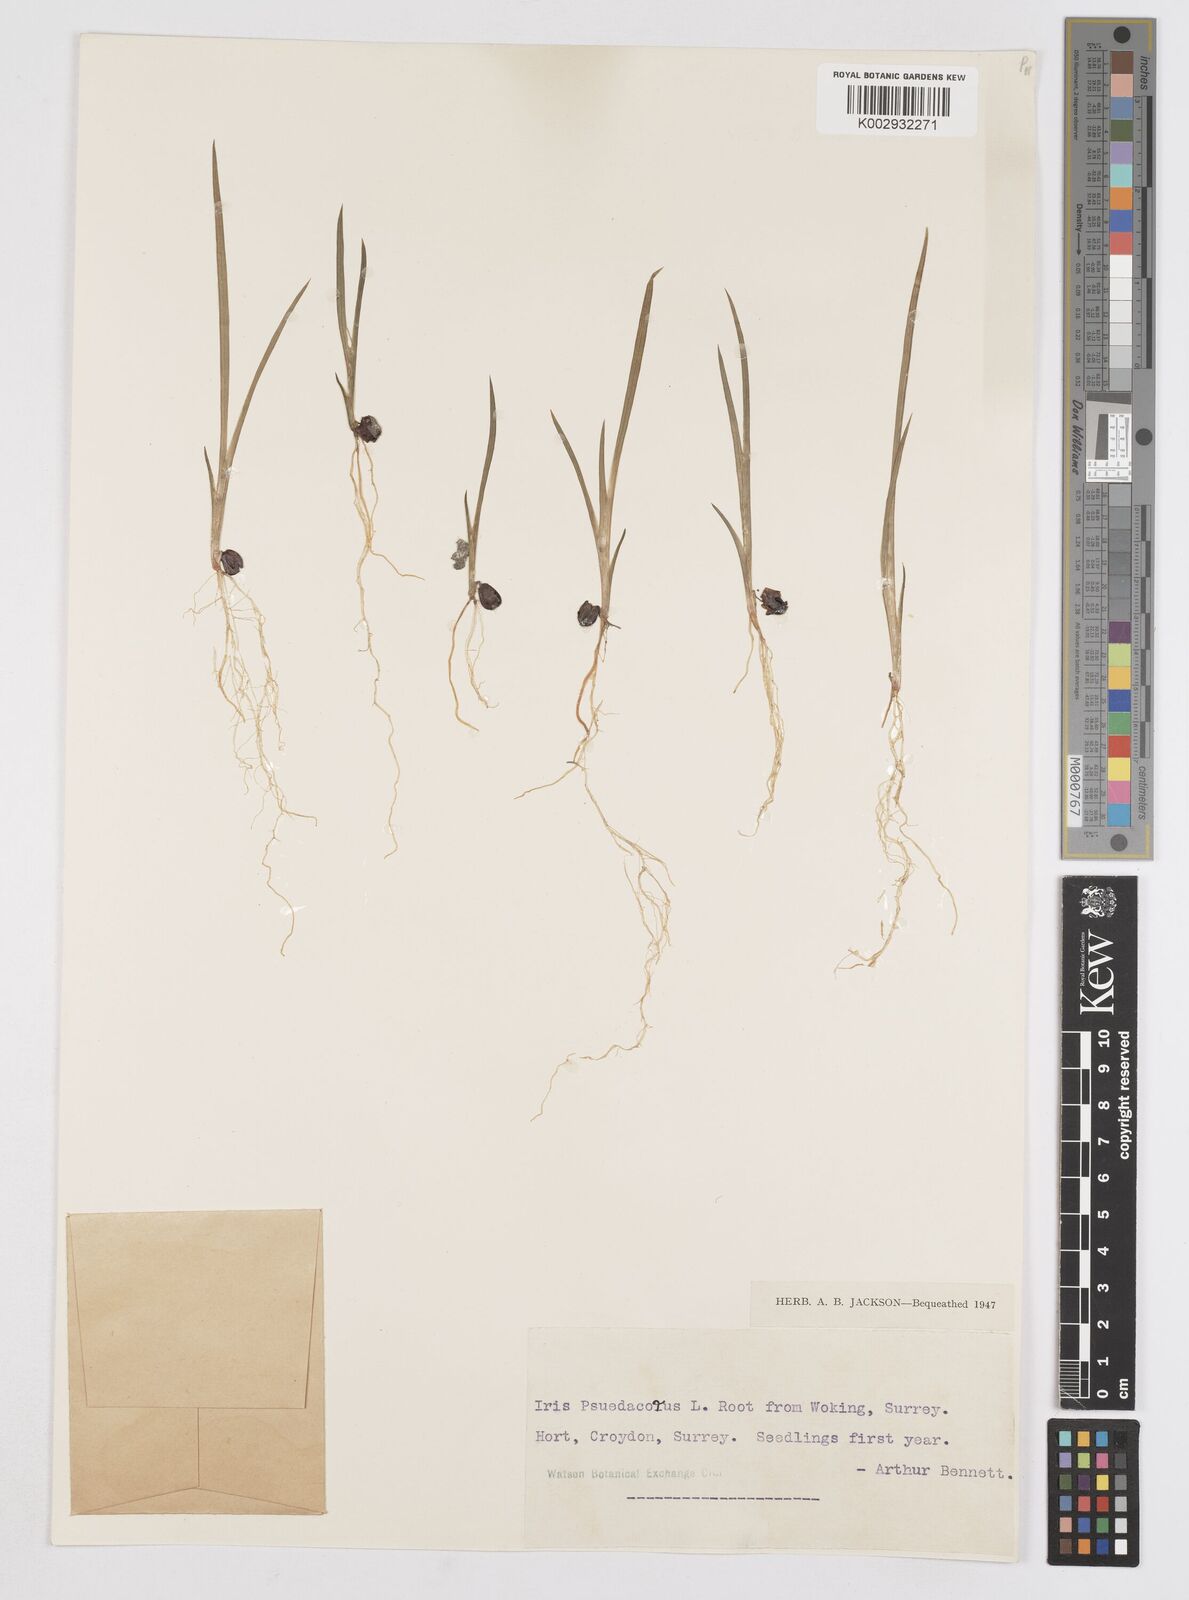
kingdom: Plantae
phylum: Tracheophyta
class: Liliopsida
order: Asparagales
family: Iridaceae
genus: Iris
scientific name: Iris pseudacorus
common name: Yellow flag
